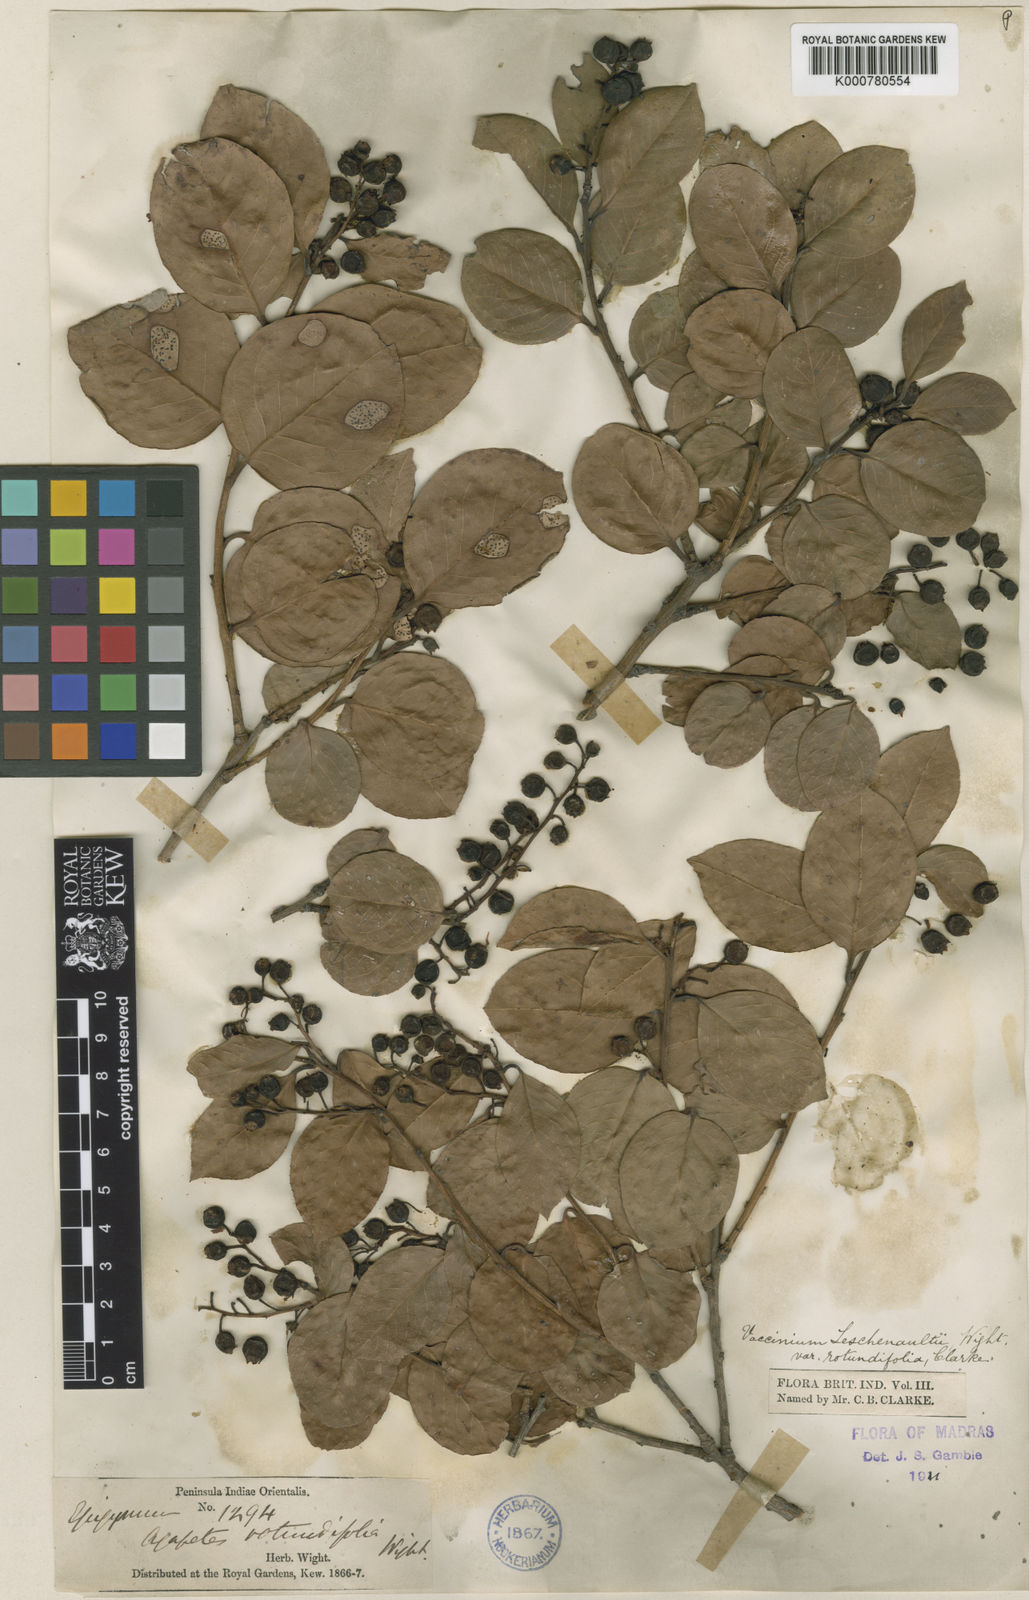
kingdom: Plantae
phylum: Tracheophyta
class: Magnoliopsida
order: Ericales
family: Ericaceae
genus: Vaccinium
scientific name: Vaccinium symplocifolium
